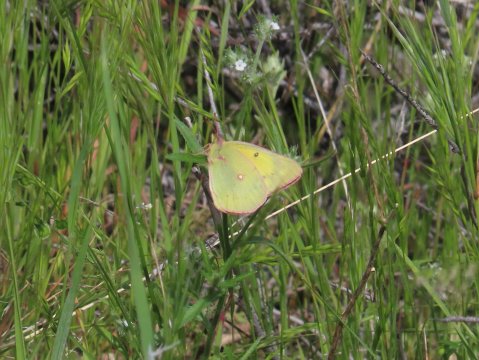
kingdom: Animalia
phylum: Arthropoda
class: Insecta
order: Lepidoptera
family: Pieridae
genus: Colias
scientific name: Colias eurytheme
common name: Orange Sulphur
